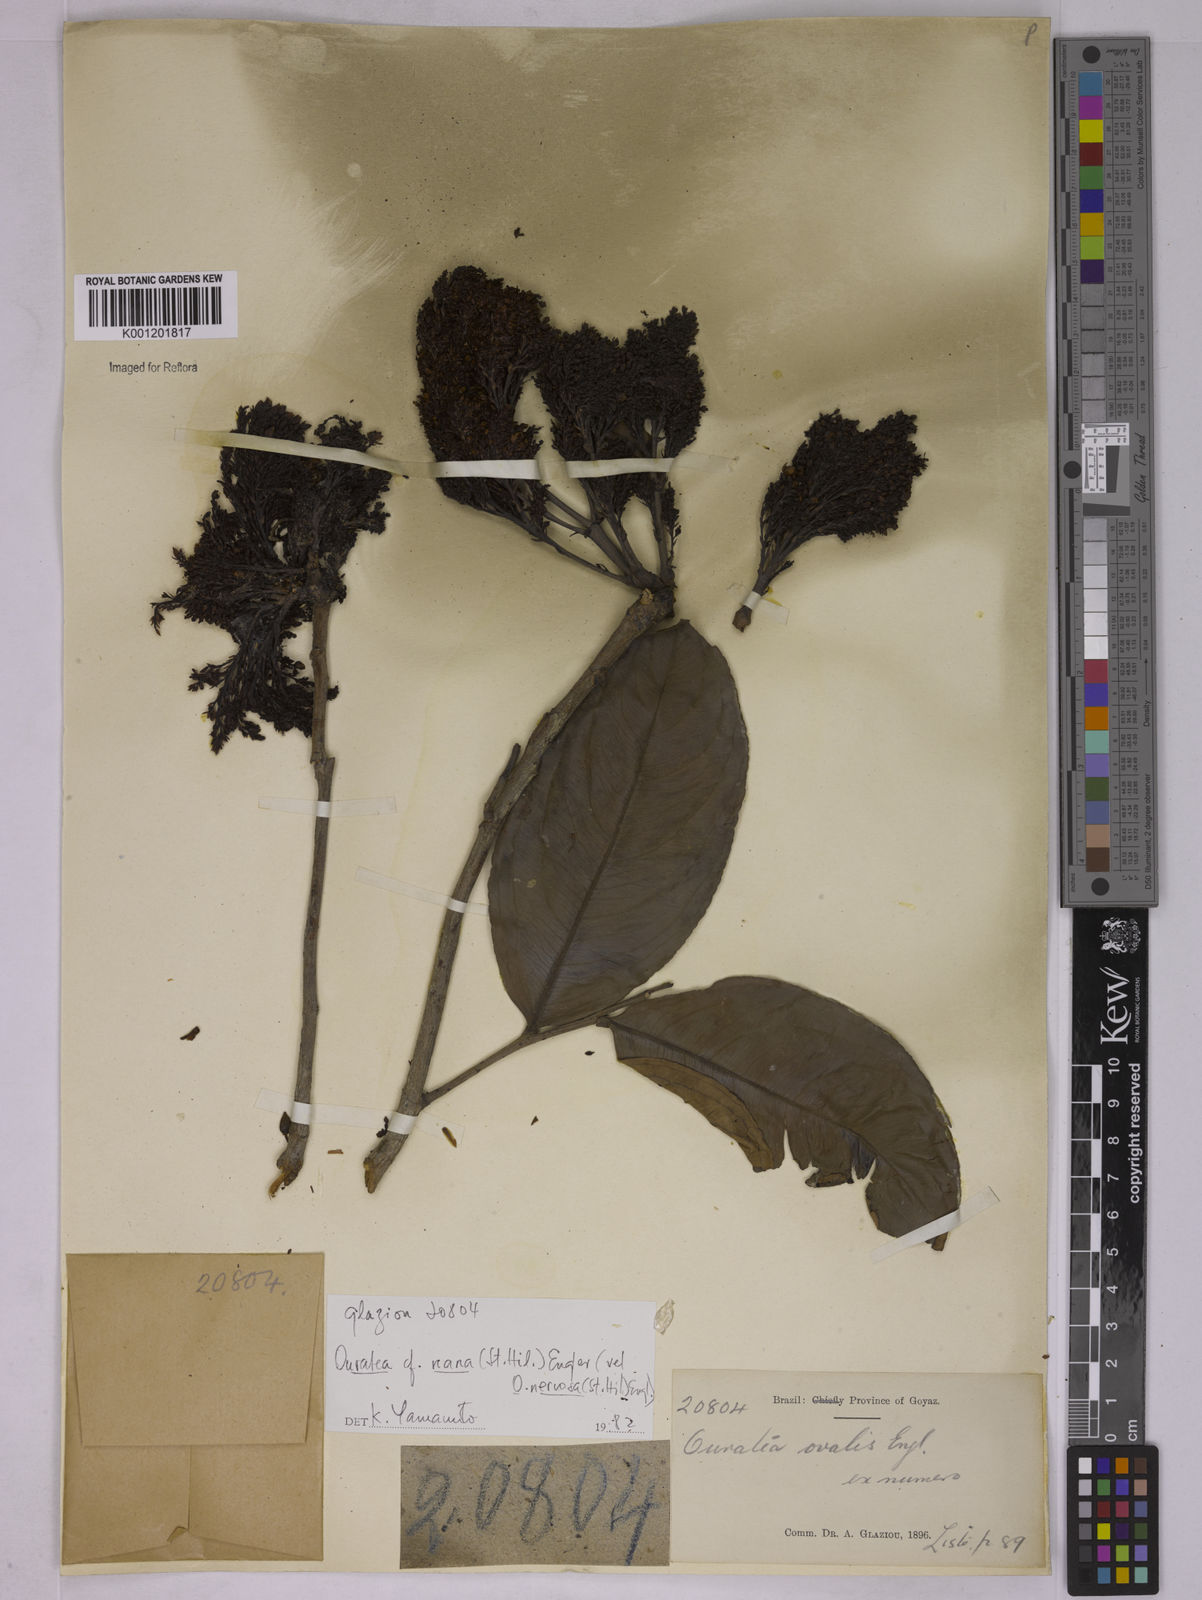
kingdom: Plantae
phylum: Tracheophyta
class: Magnoliopsida
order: Malpighiales
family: Ochnaceae
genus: Ouratea
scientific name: Ouratea nana
